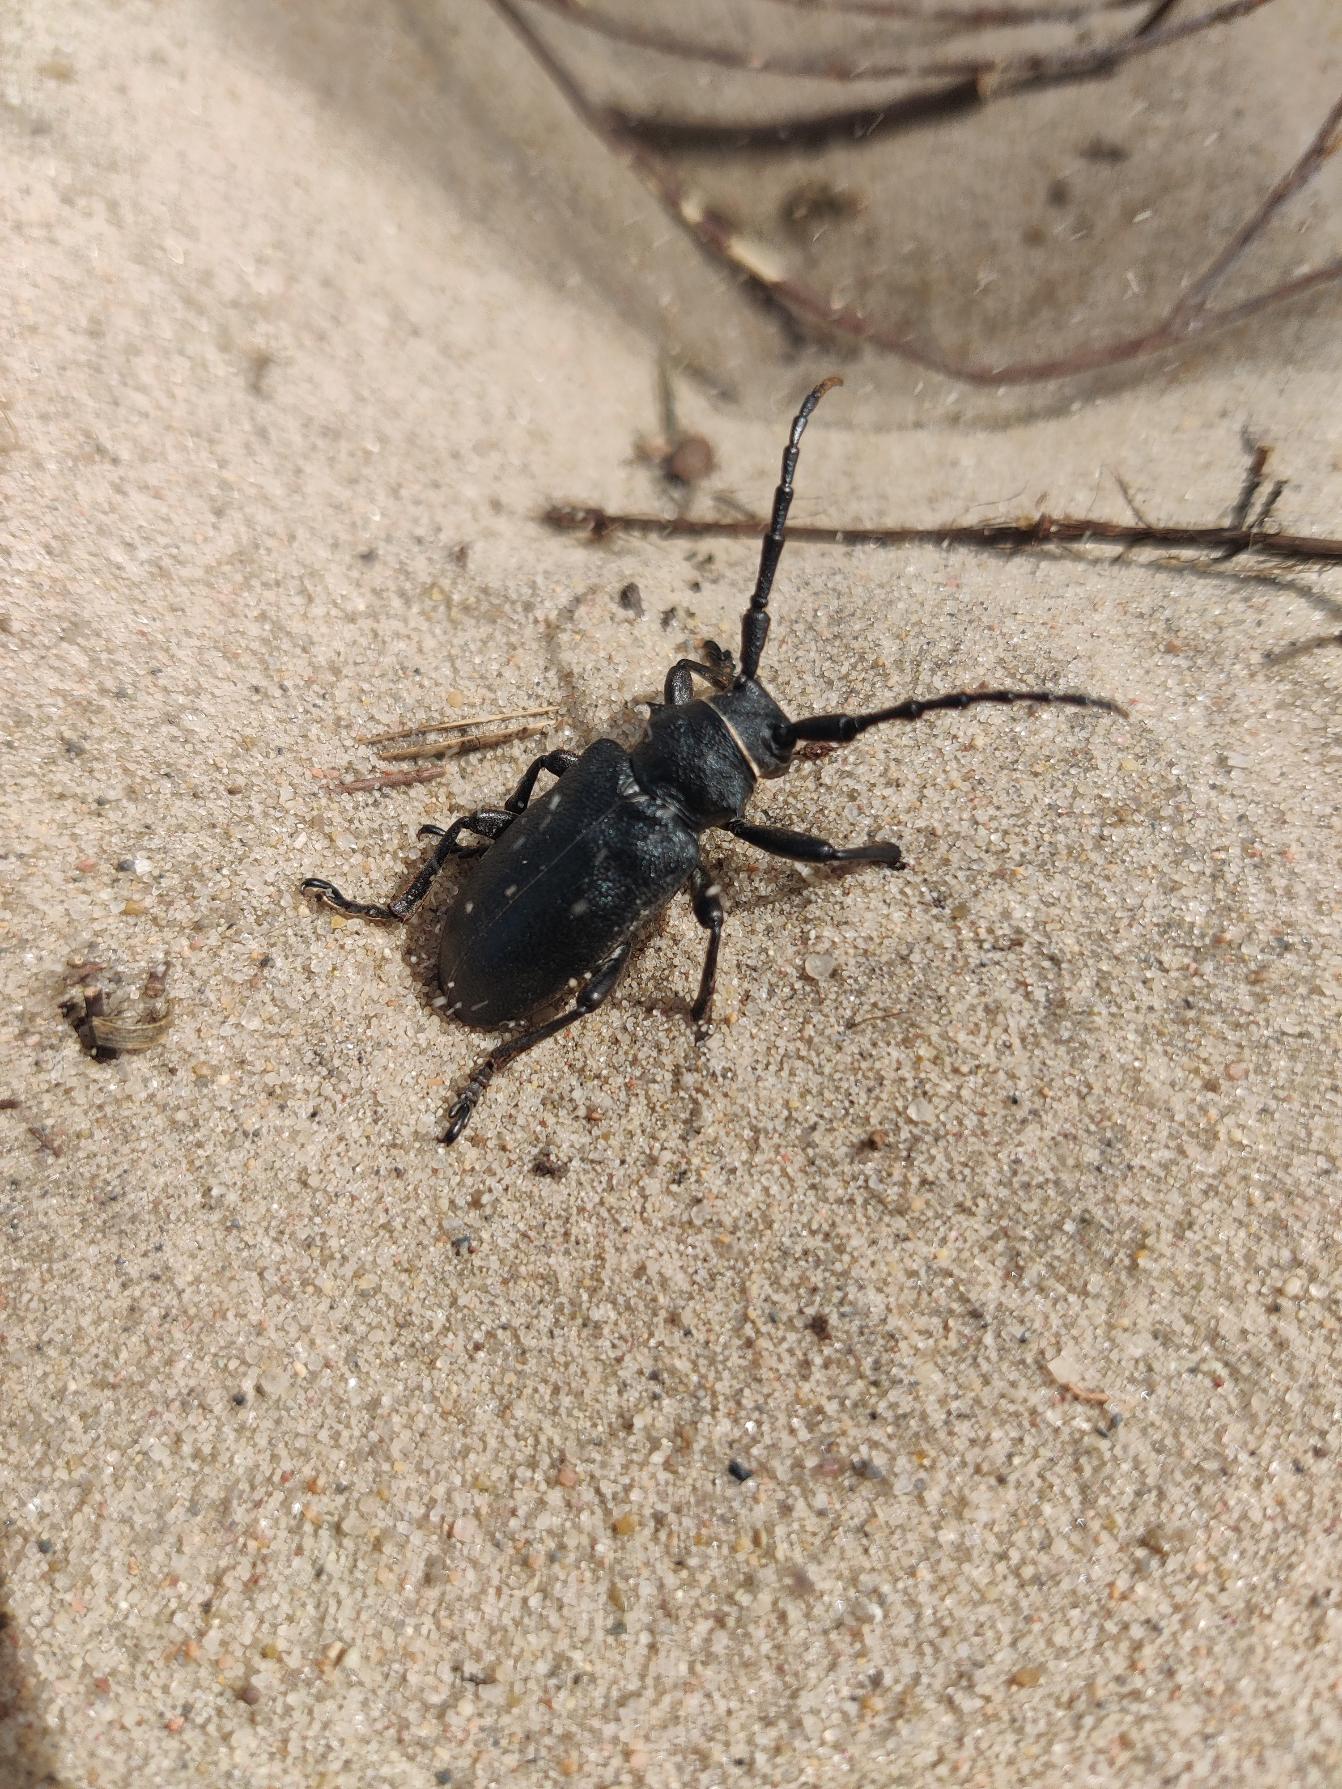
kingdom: Animalia
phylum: Arthropoda
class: Insecta
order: Coleoptera
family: Cerambycidae
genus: Lamia
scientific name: Lamia textor
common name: Væver
